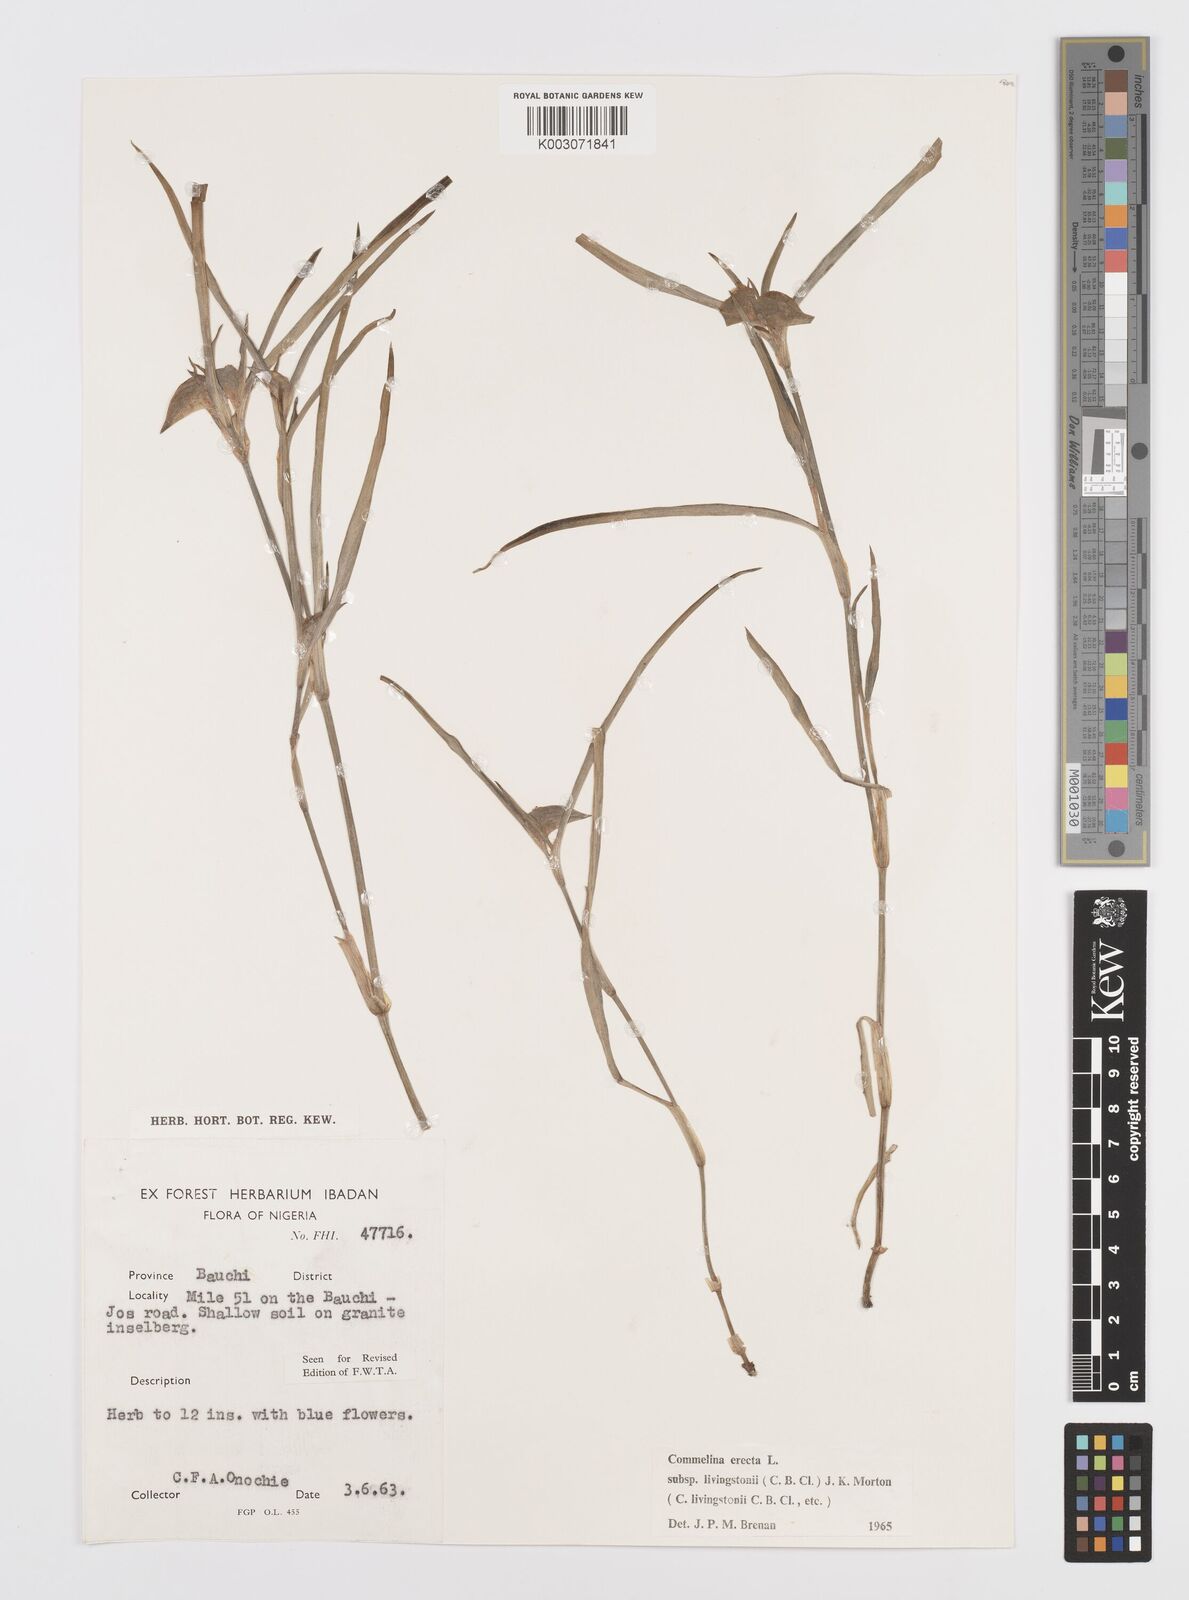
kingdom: Plantae
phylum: Tracheophyta
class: Liliopsida
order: Commelinales
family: Commelinaceae
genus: Commelina
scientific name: Commelina erecta
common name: Blousel blommetjie
